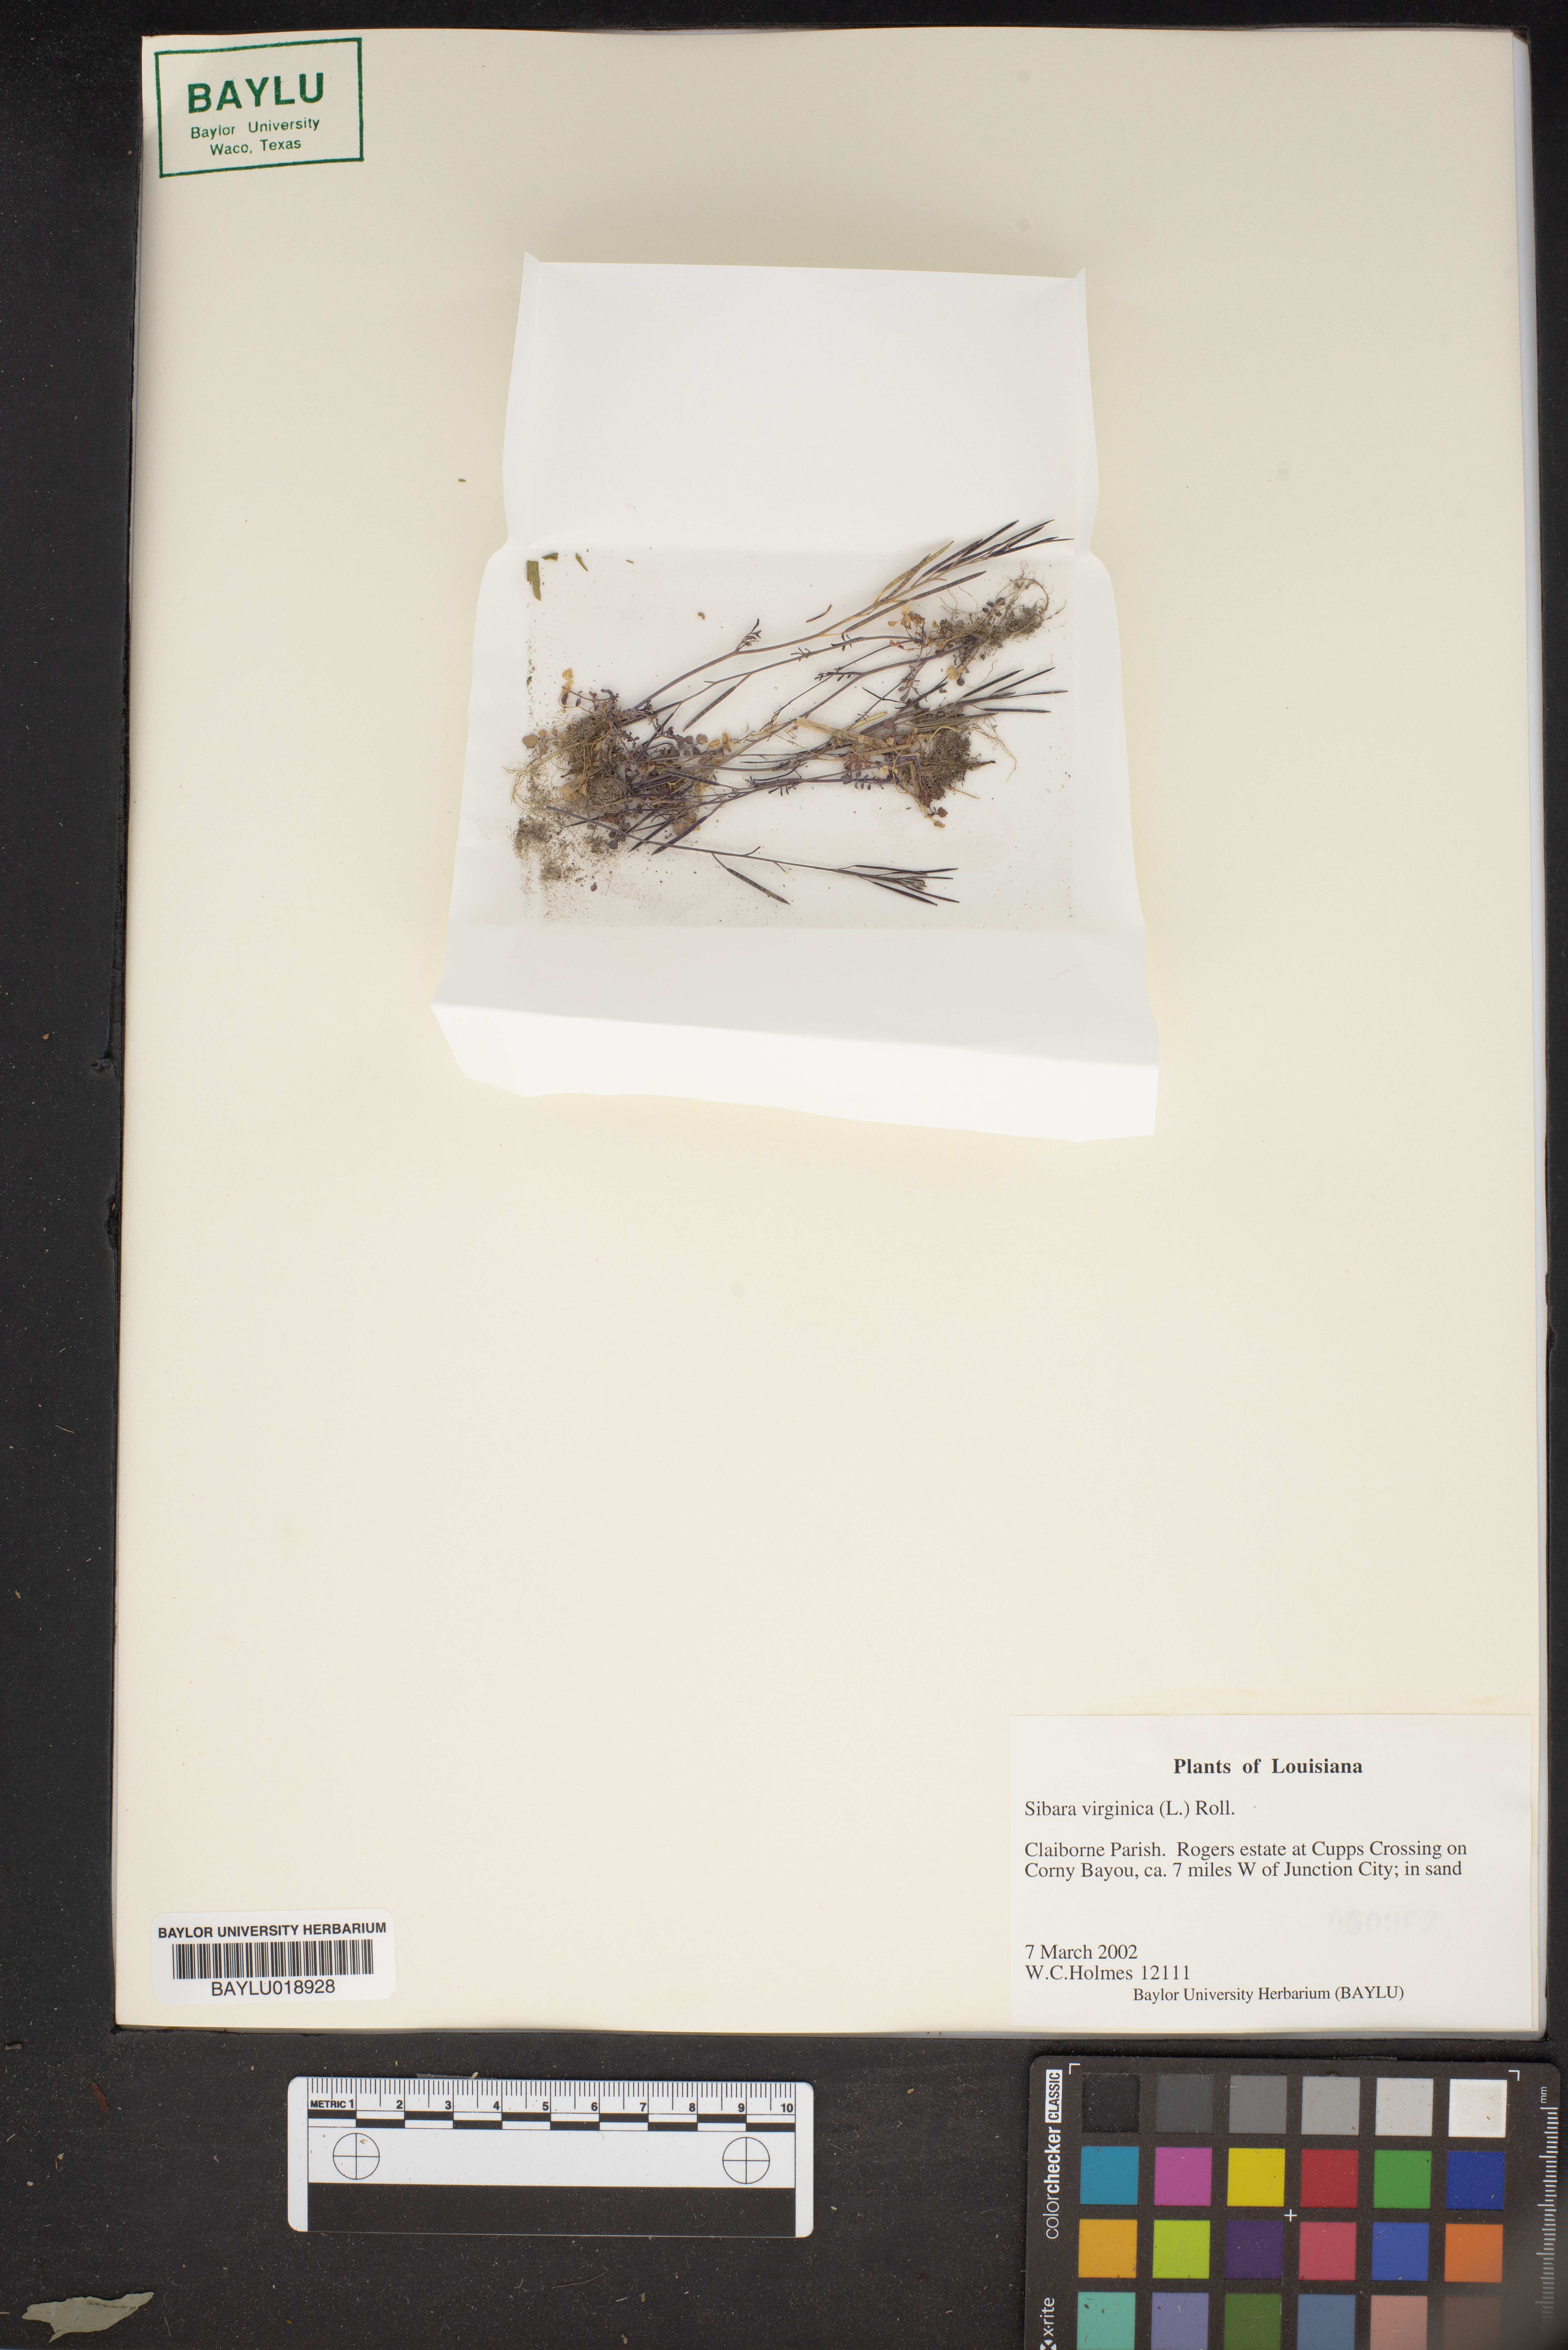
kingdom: Plantae
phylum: Tracheophyta
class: Magnoliopsida
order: Brassicales
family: Brassicaceae
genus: Planodes
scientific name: Planodes virginicum
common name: Virginia cress
